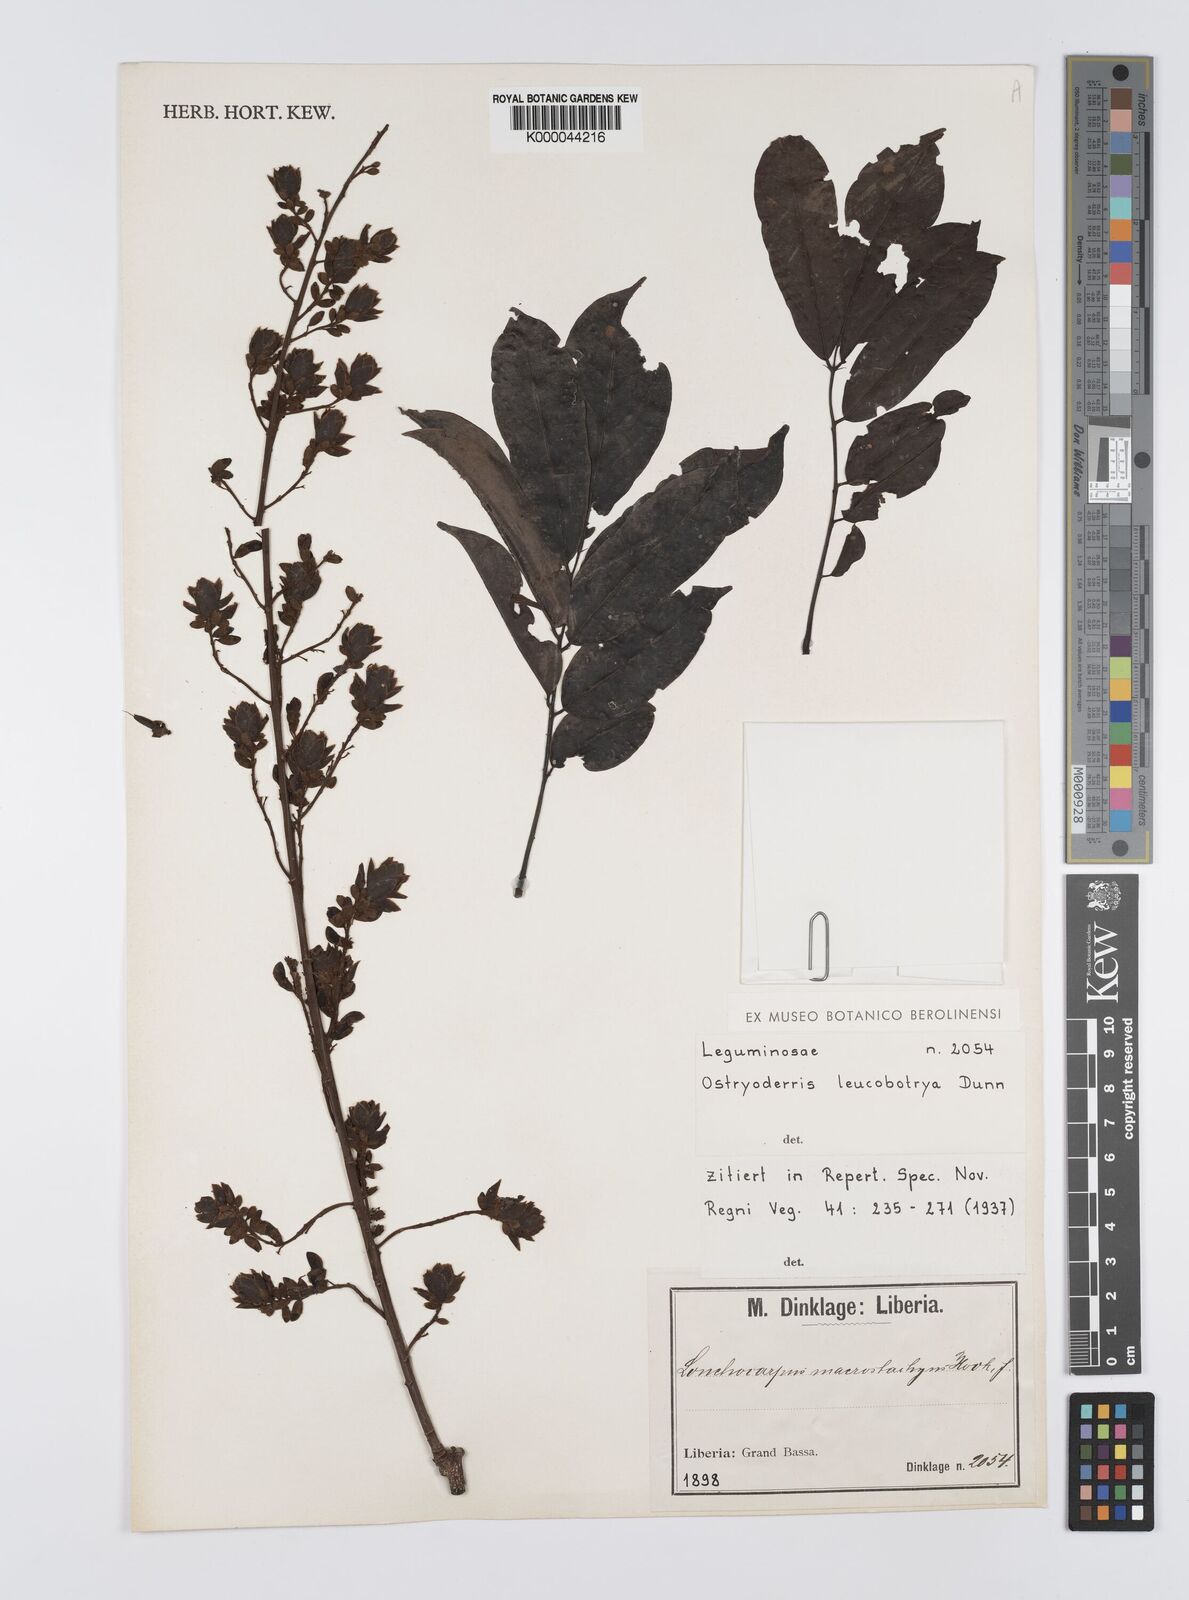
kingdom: Plantae
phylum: Tracheophyta
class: Magnoliopsida
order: Fabales
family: Fabaceae
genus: Aganope
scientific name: Aganope leucobotrya
